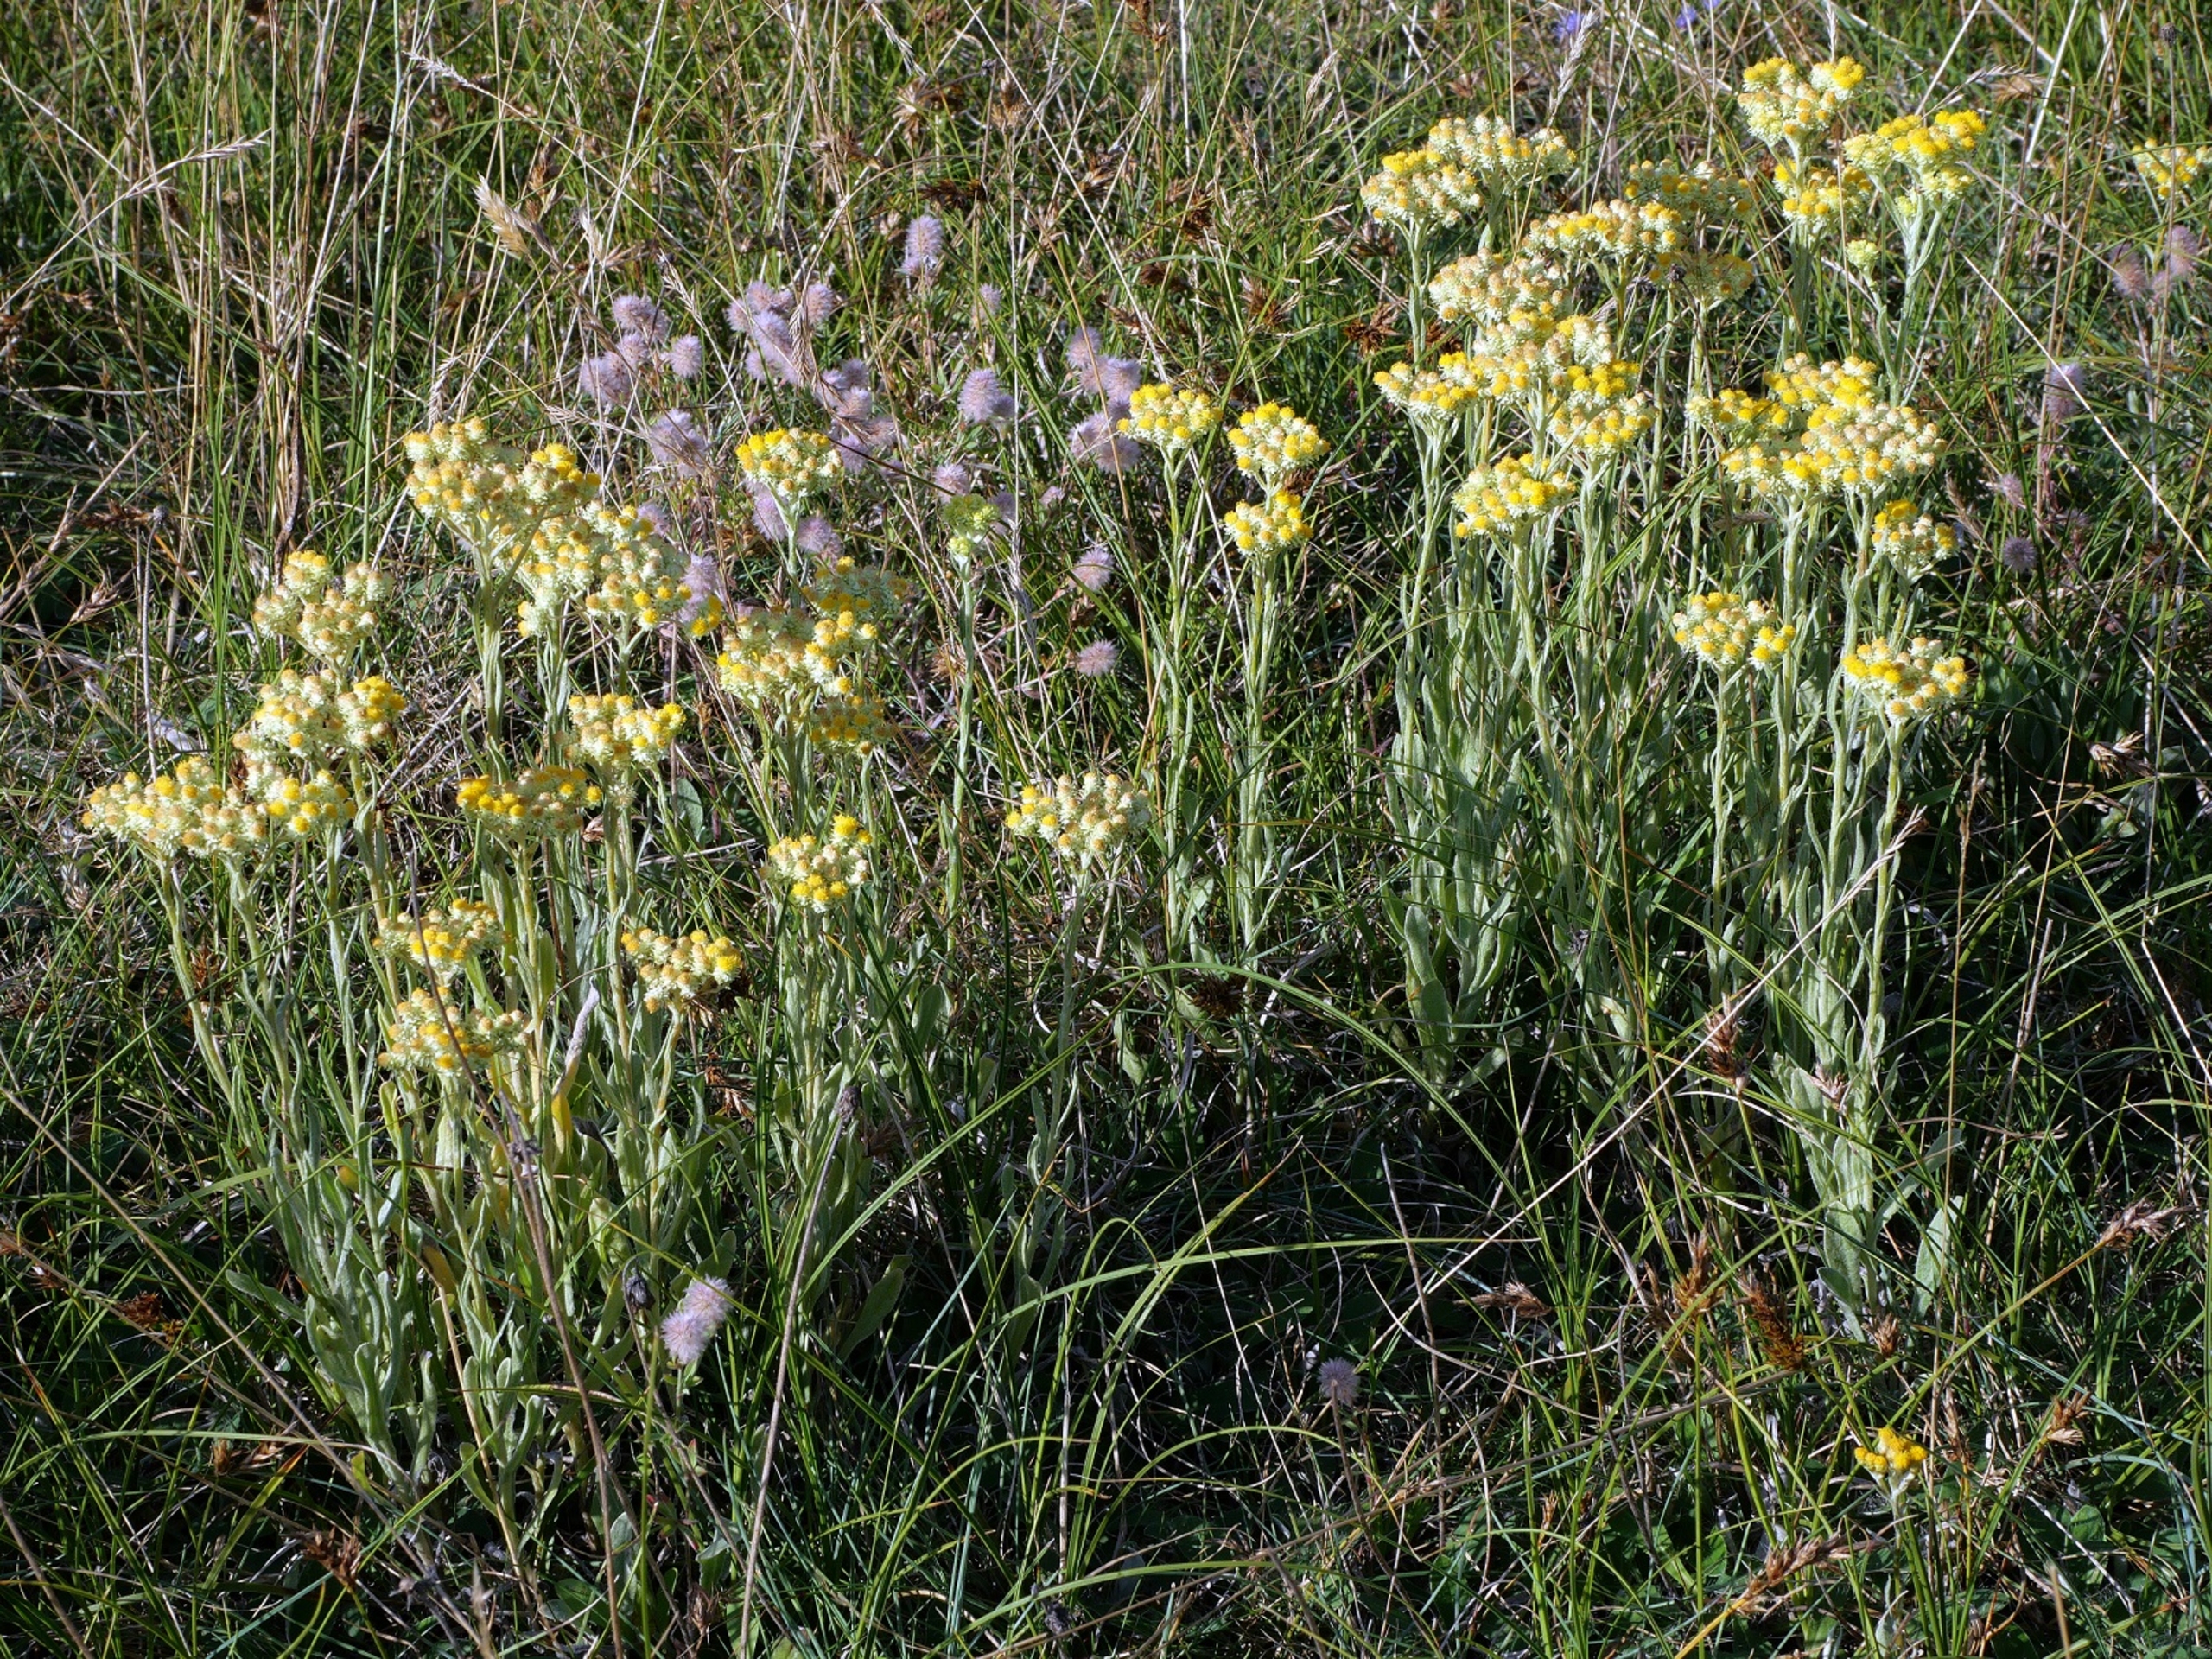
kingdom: Plantae
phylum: Tracheophyta
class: Magnoliopsida
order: Asterales
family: Asteraceae
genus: Helichrysum
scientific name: Helichrysum arenarium
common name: Gul evighedsblomst
